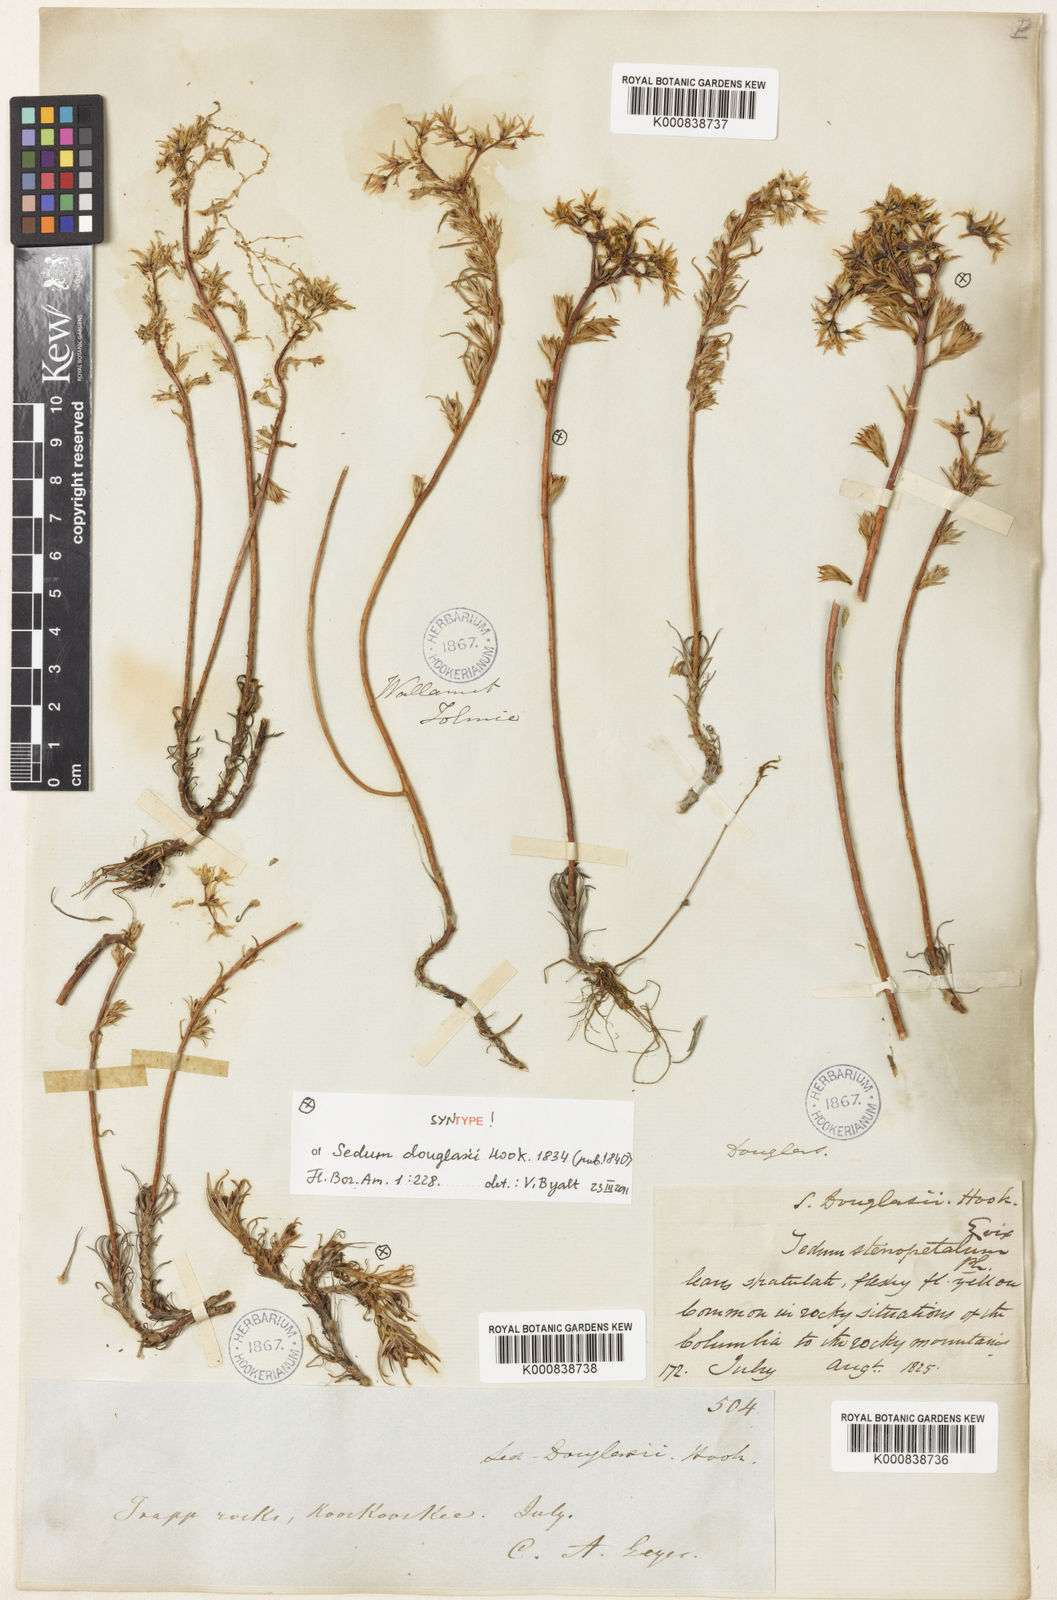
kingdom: Plantae
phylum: Tracheophyta
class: Magnoliopsida
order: Saxifragales
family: Crassulaceae
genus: Sedum
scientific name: Sedum stenopetalum
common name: Narrow-petaled stonecrop
